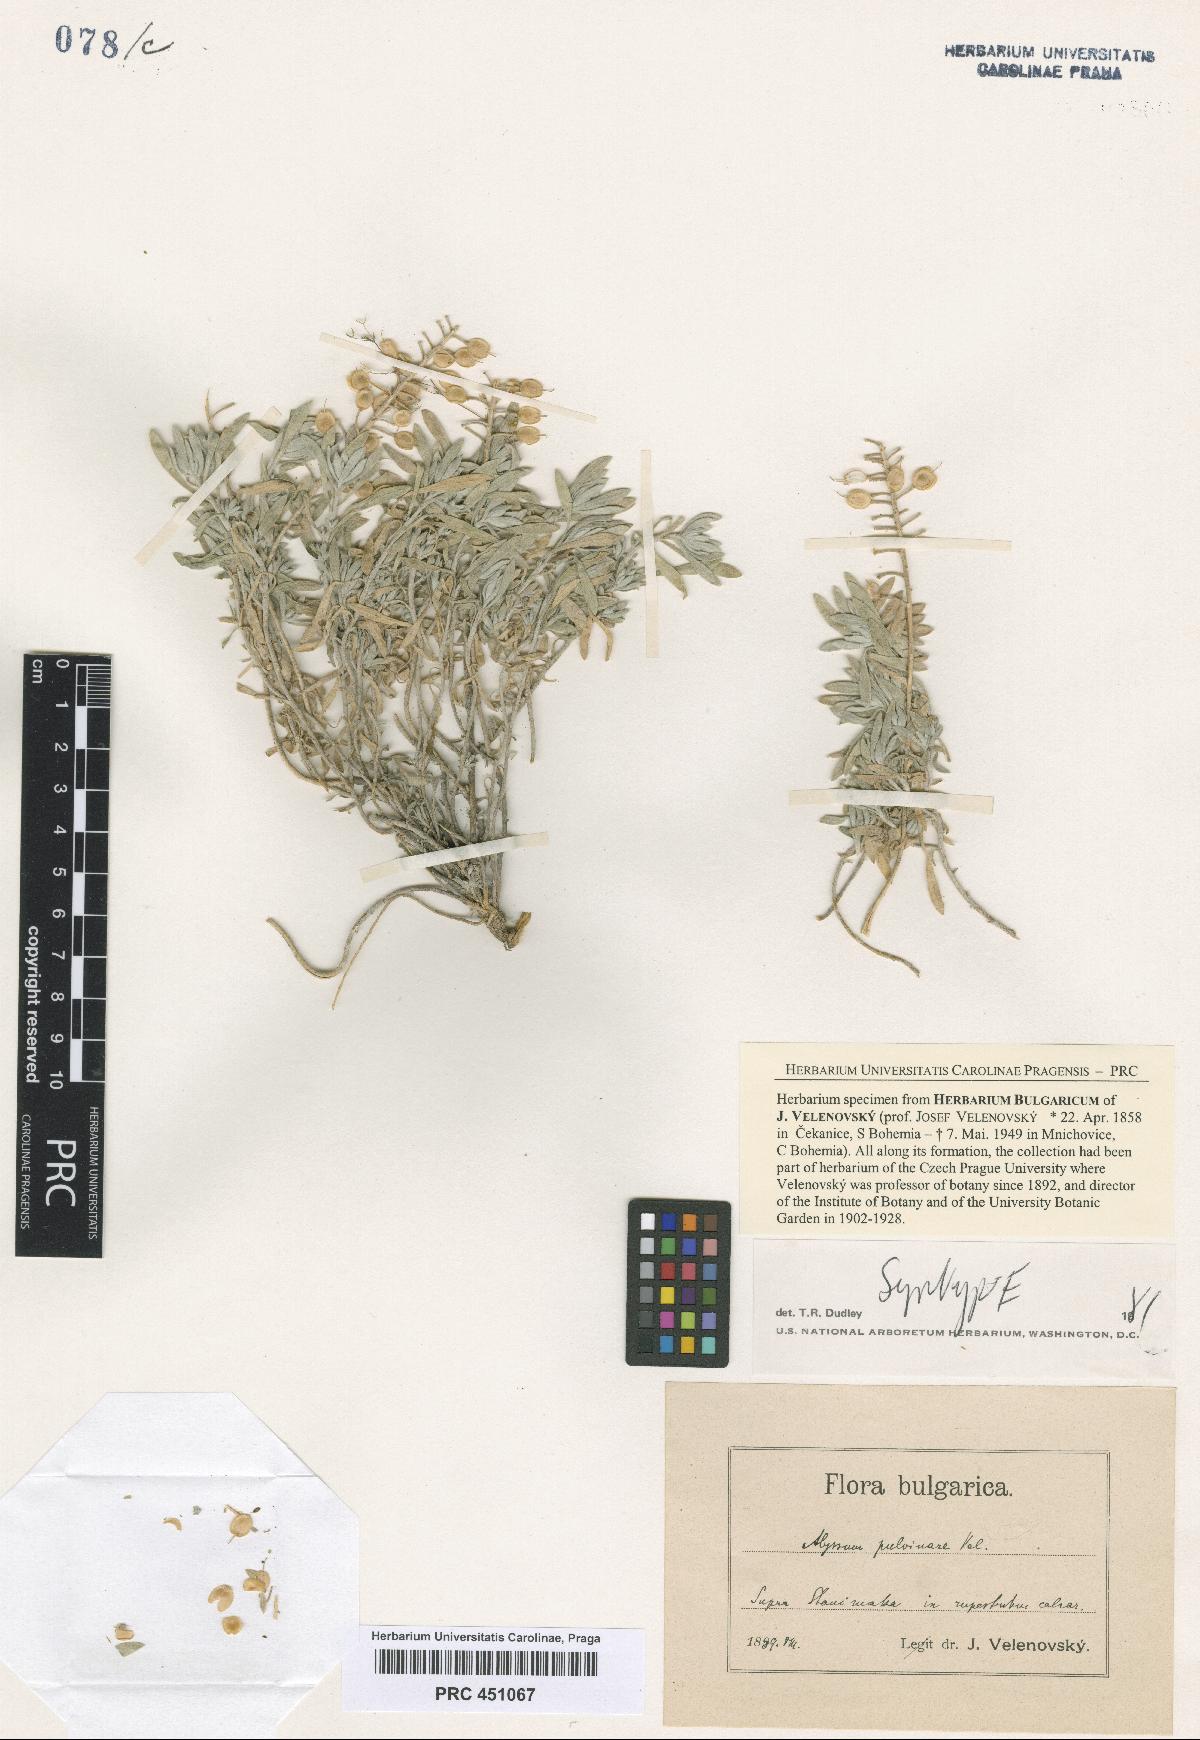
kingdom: Plantae
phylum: Tracheophyta
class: Magnoliopsida
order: Brassicales
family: Brassicaceae
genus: Alyssum
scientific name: Alyssum pulvinare
